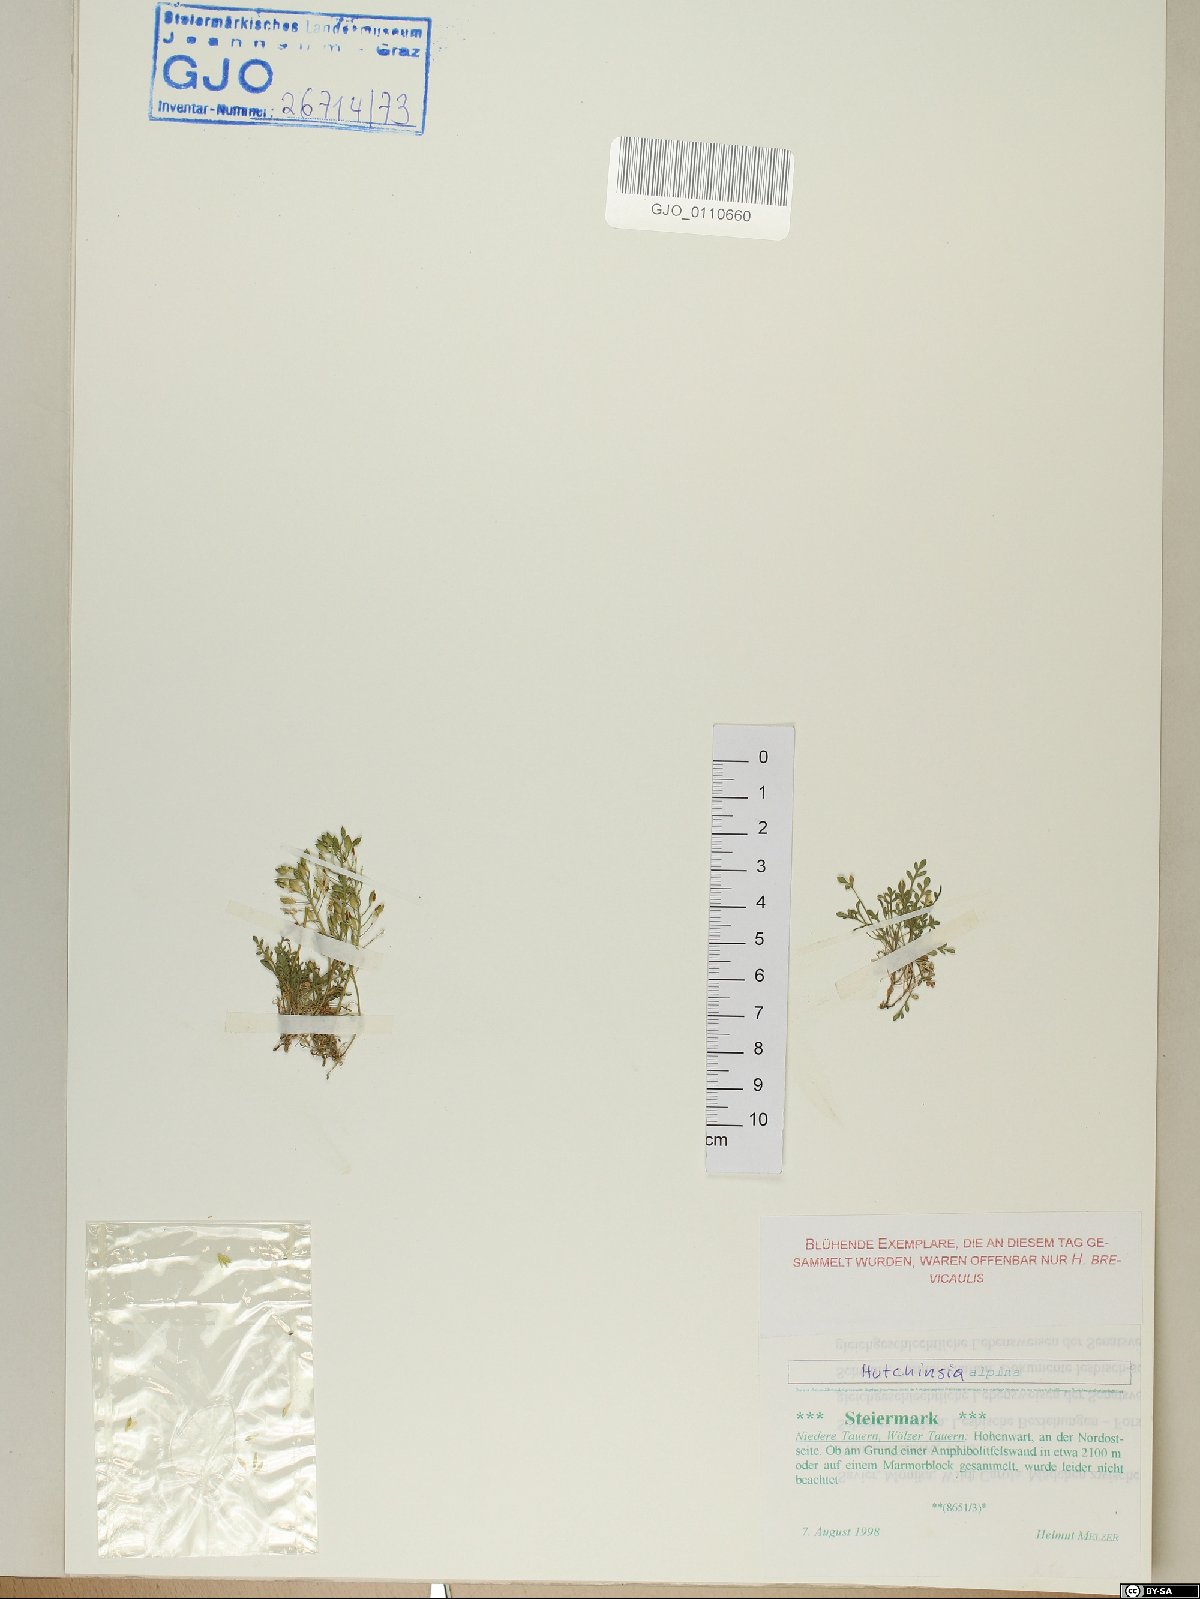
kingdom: Plantae
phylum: Tracheophyta
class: Magnoliopsida
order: Brassicales
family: Brassicaceae
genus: Hornungia
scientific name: Hornungia alpina
